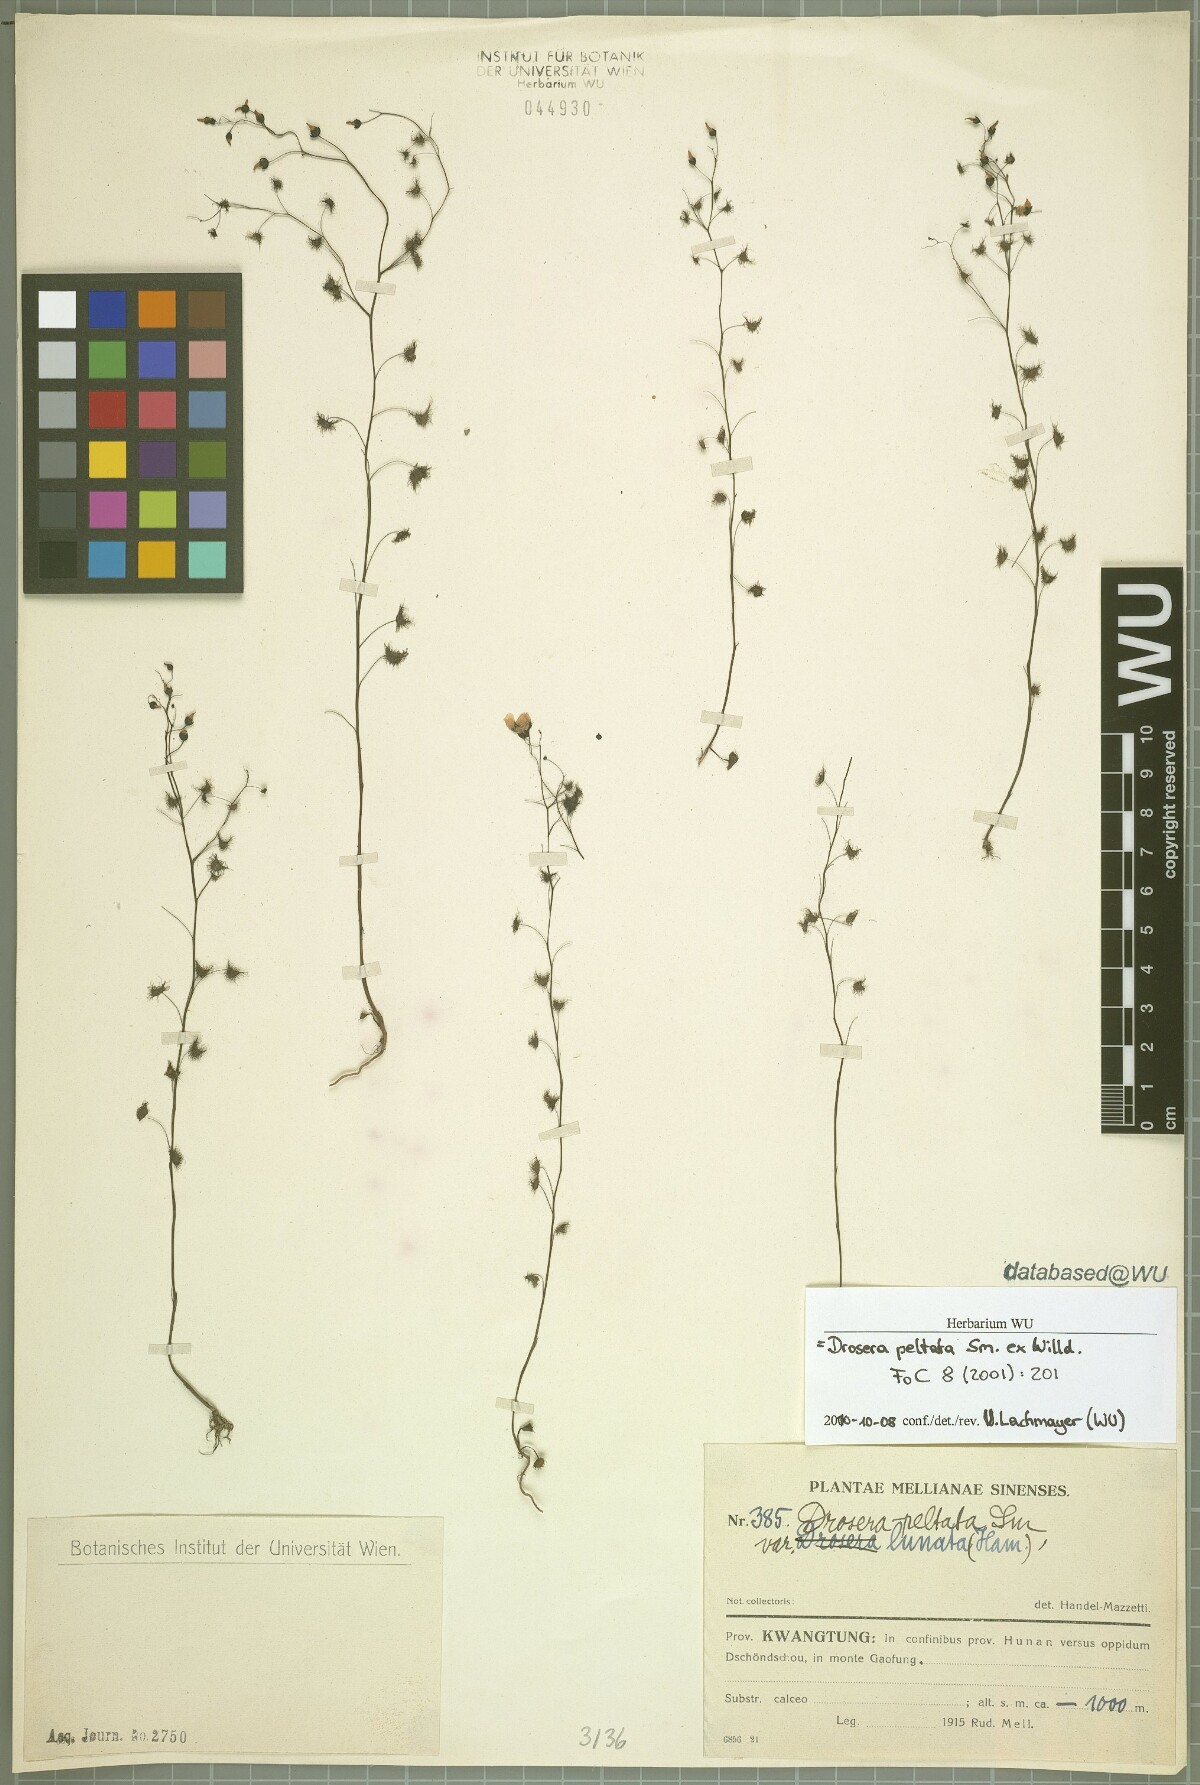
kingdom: Plantae
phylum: Tracheophyta
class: Magnoliopsida
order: Caryophyllales
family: Droseraceae
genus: Drosera
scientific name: Drosera peltata
